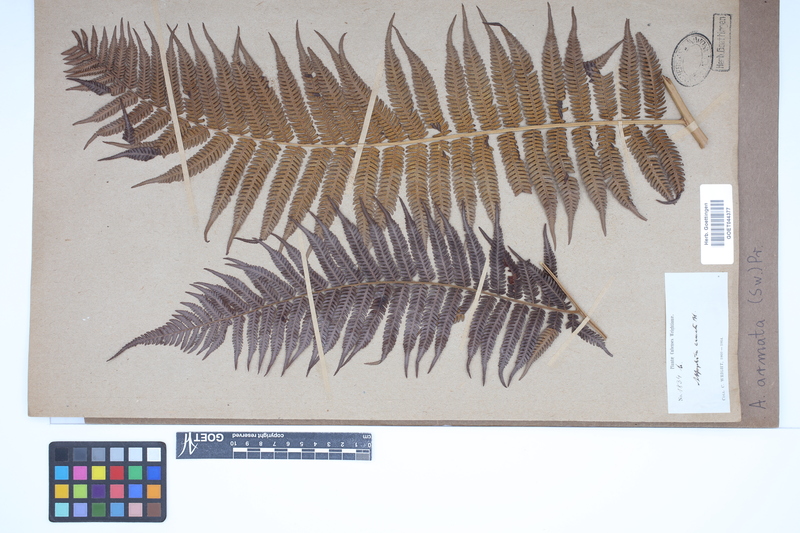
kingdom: Plantae
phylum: Tracheophyta
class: Polypodiopsida
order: Cyatheales
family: Cyatheaceae
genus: Cyathea
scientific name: Cyathea armata
